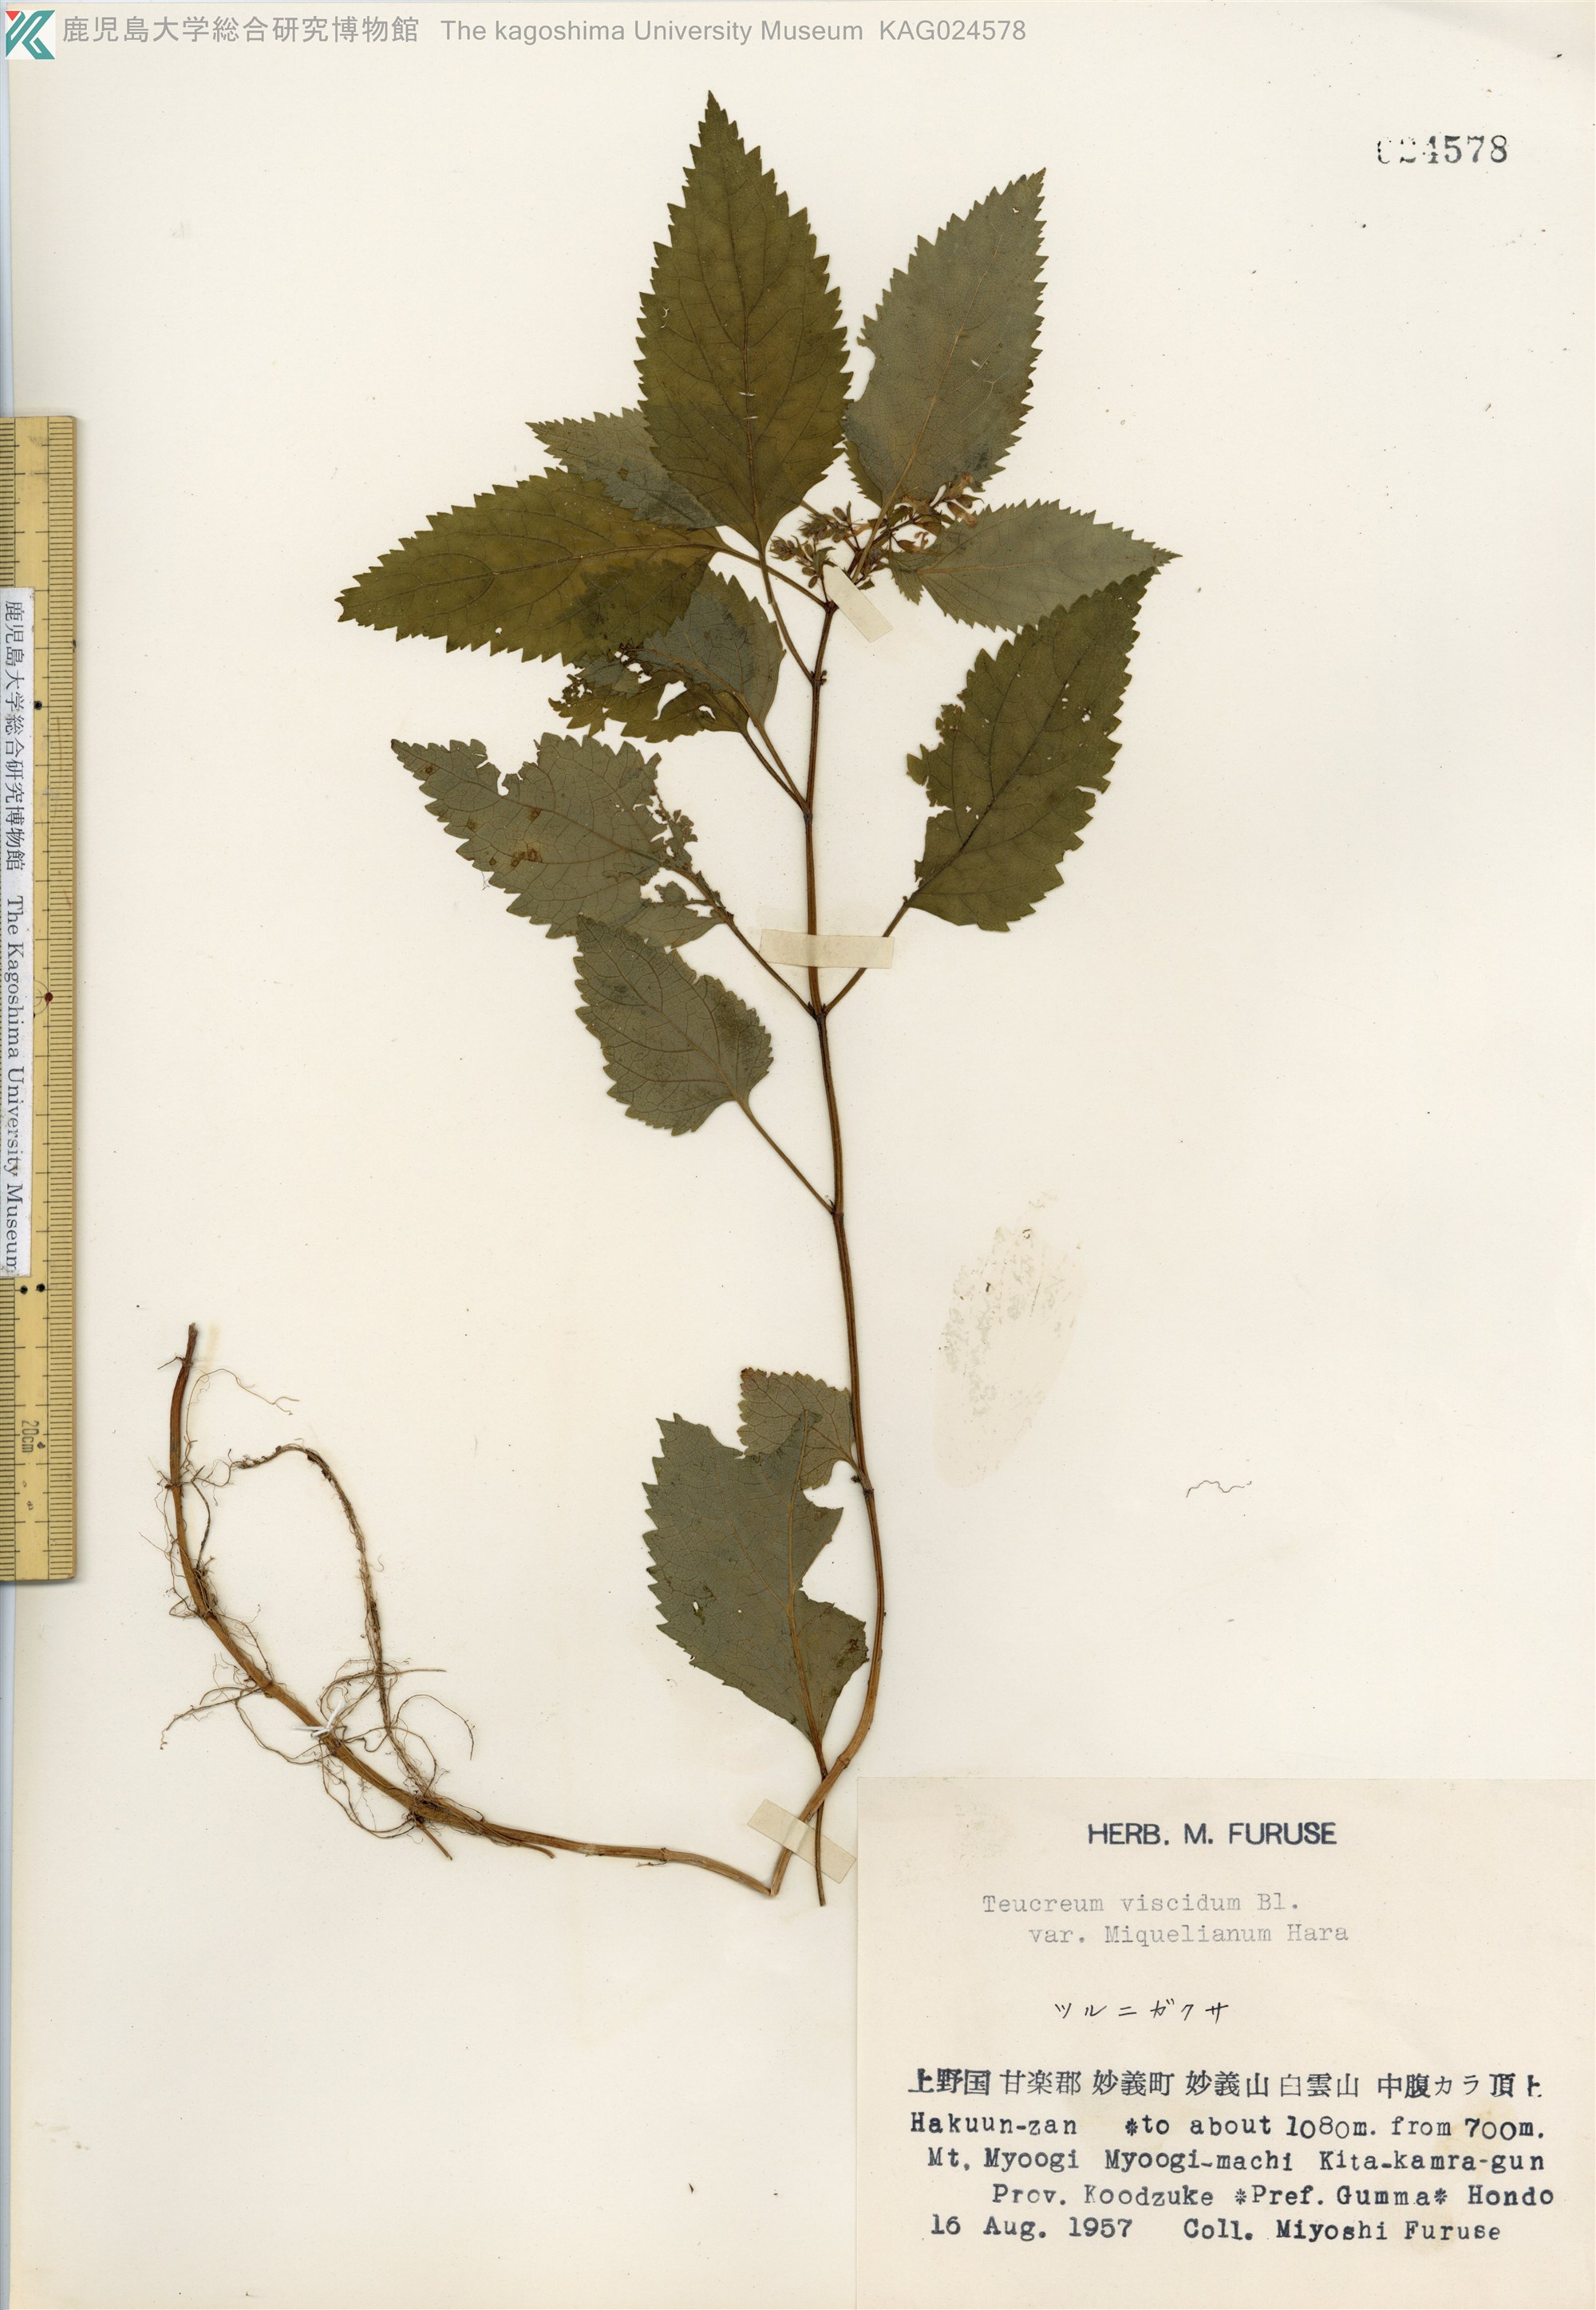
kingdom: Plantae
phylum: Tracheophyta
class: Magnoliopsida
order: Lamiales
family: Lamiaceae
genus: Teucrium
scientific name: Teucrium viscidum
